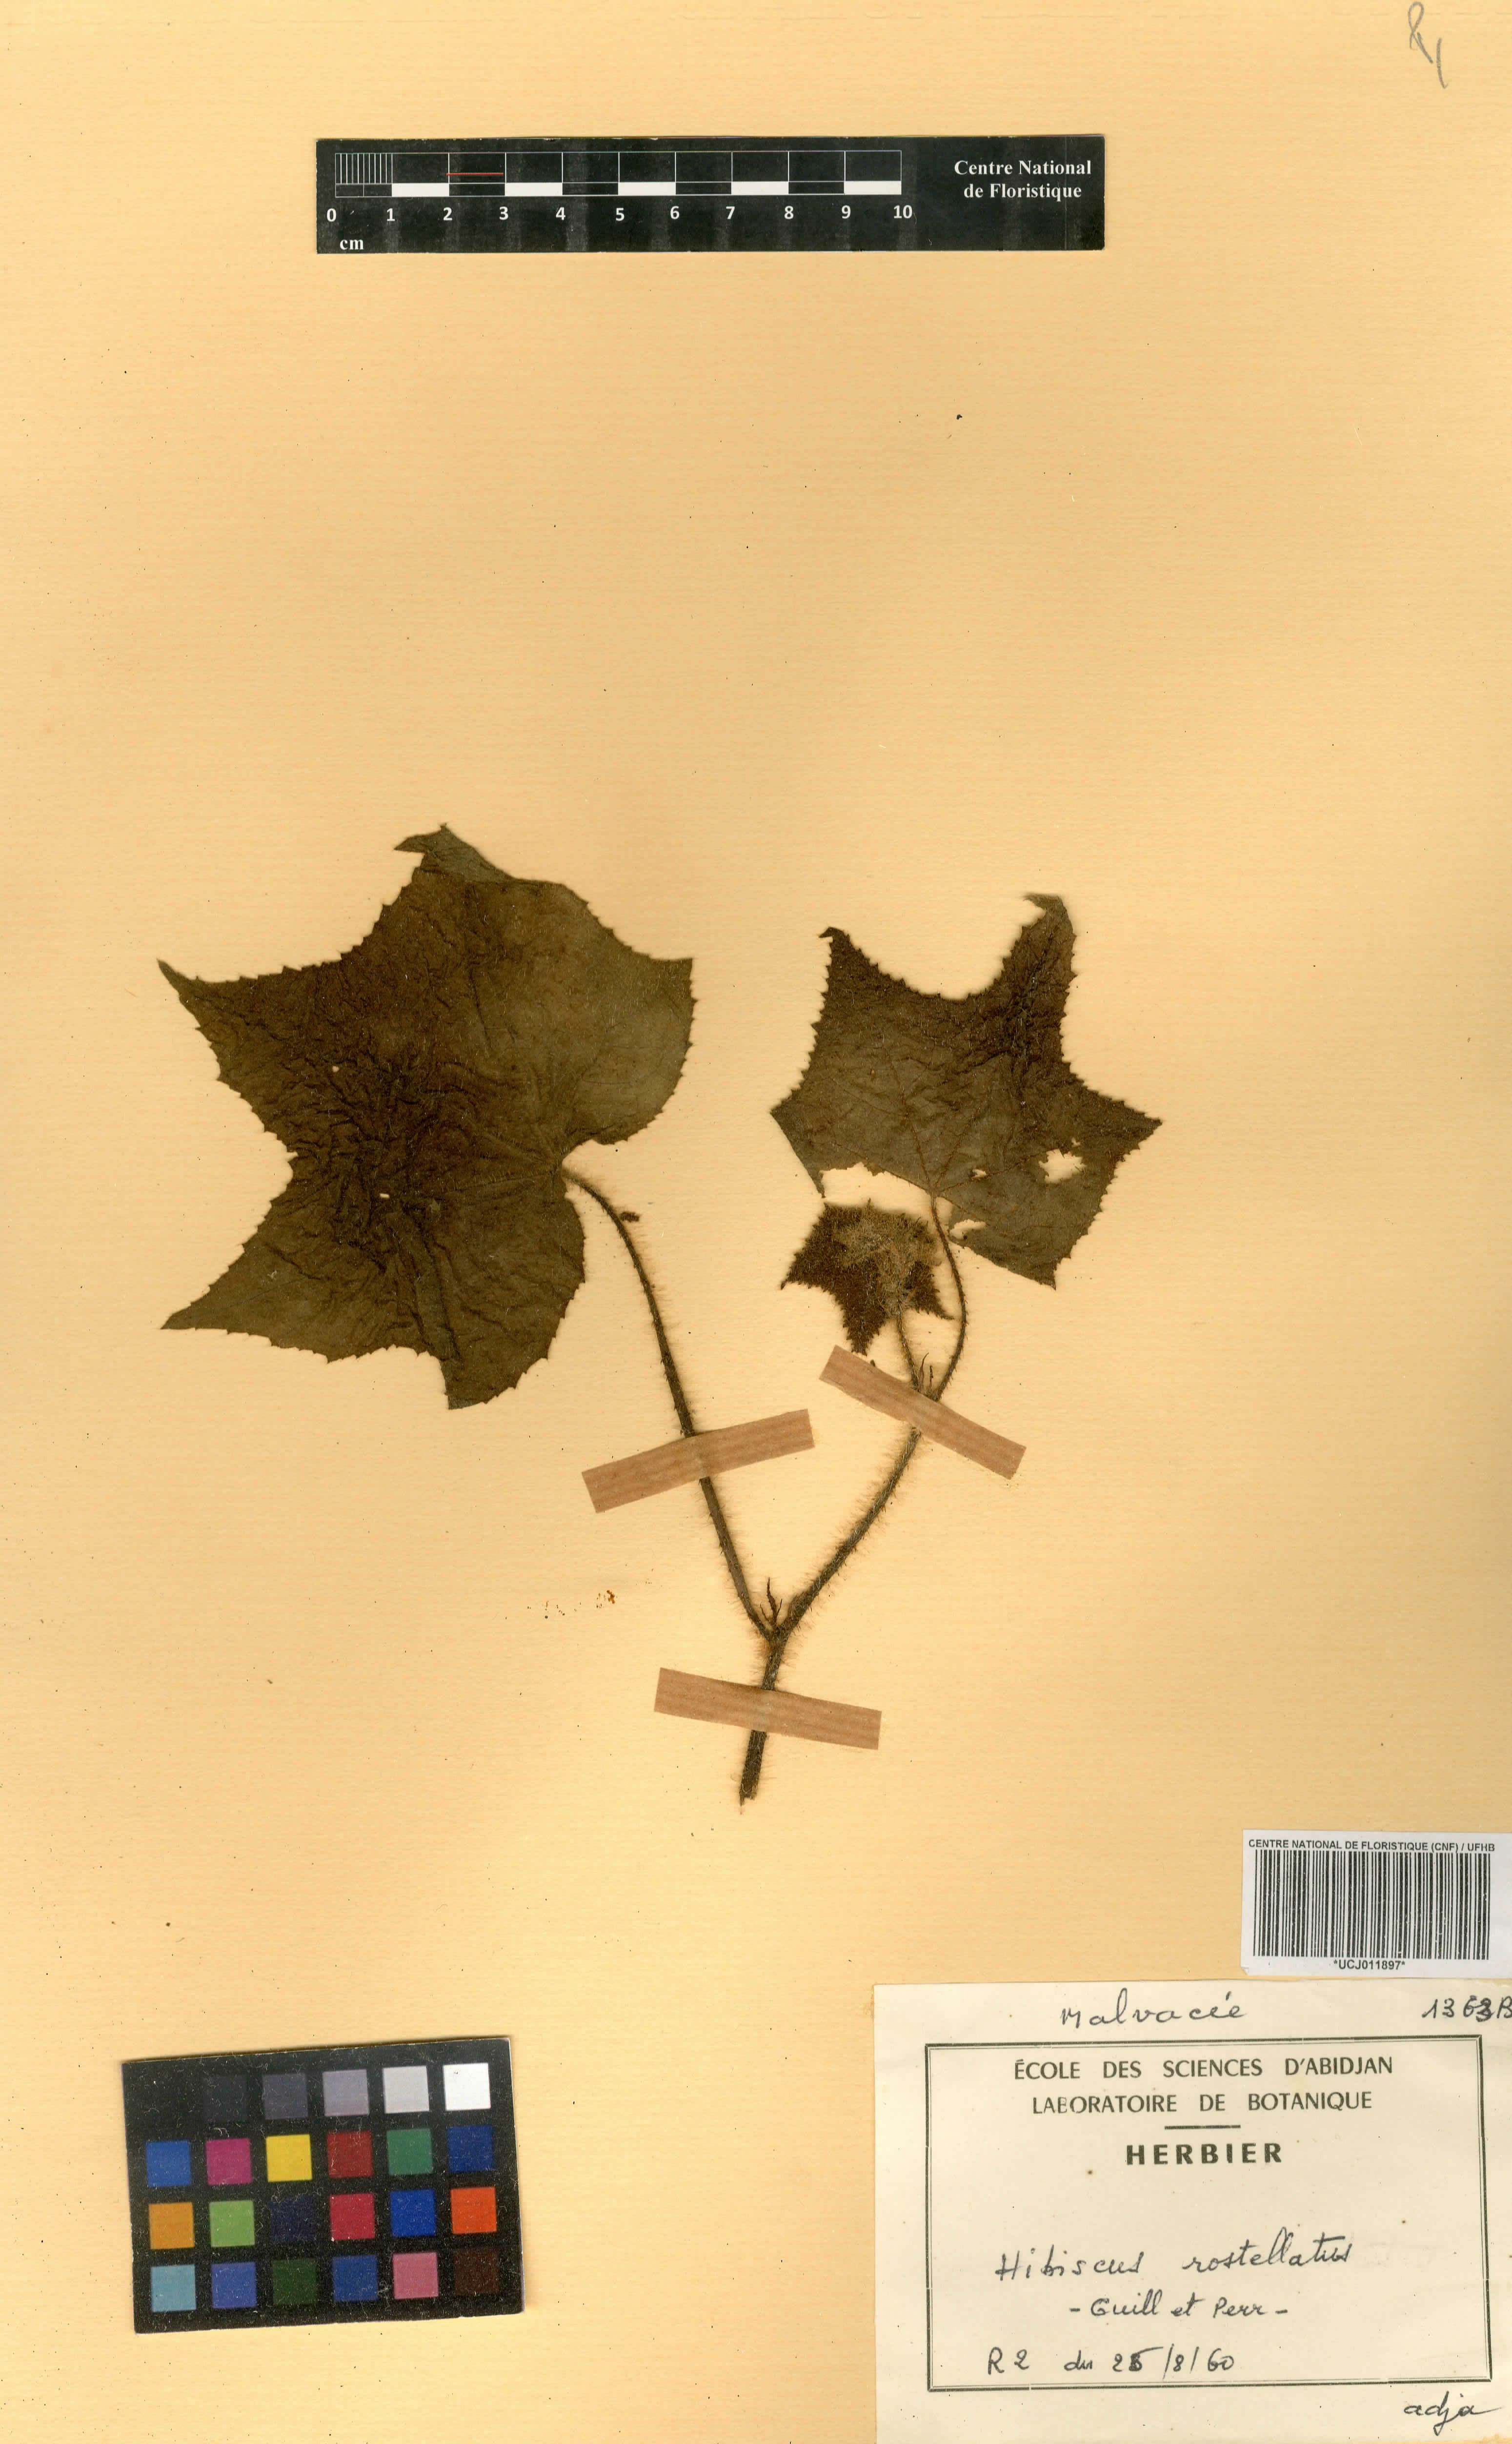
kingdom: Plantae
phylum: Tracheophyta
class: Magnoliopsida
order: Malvales
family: Malvaceae
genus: Hibiscus
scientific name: Hibiscus rostellatus
